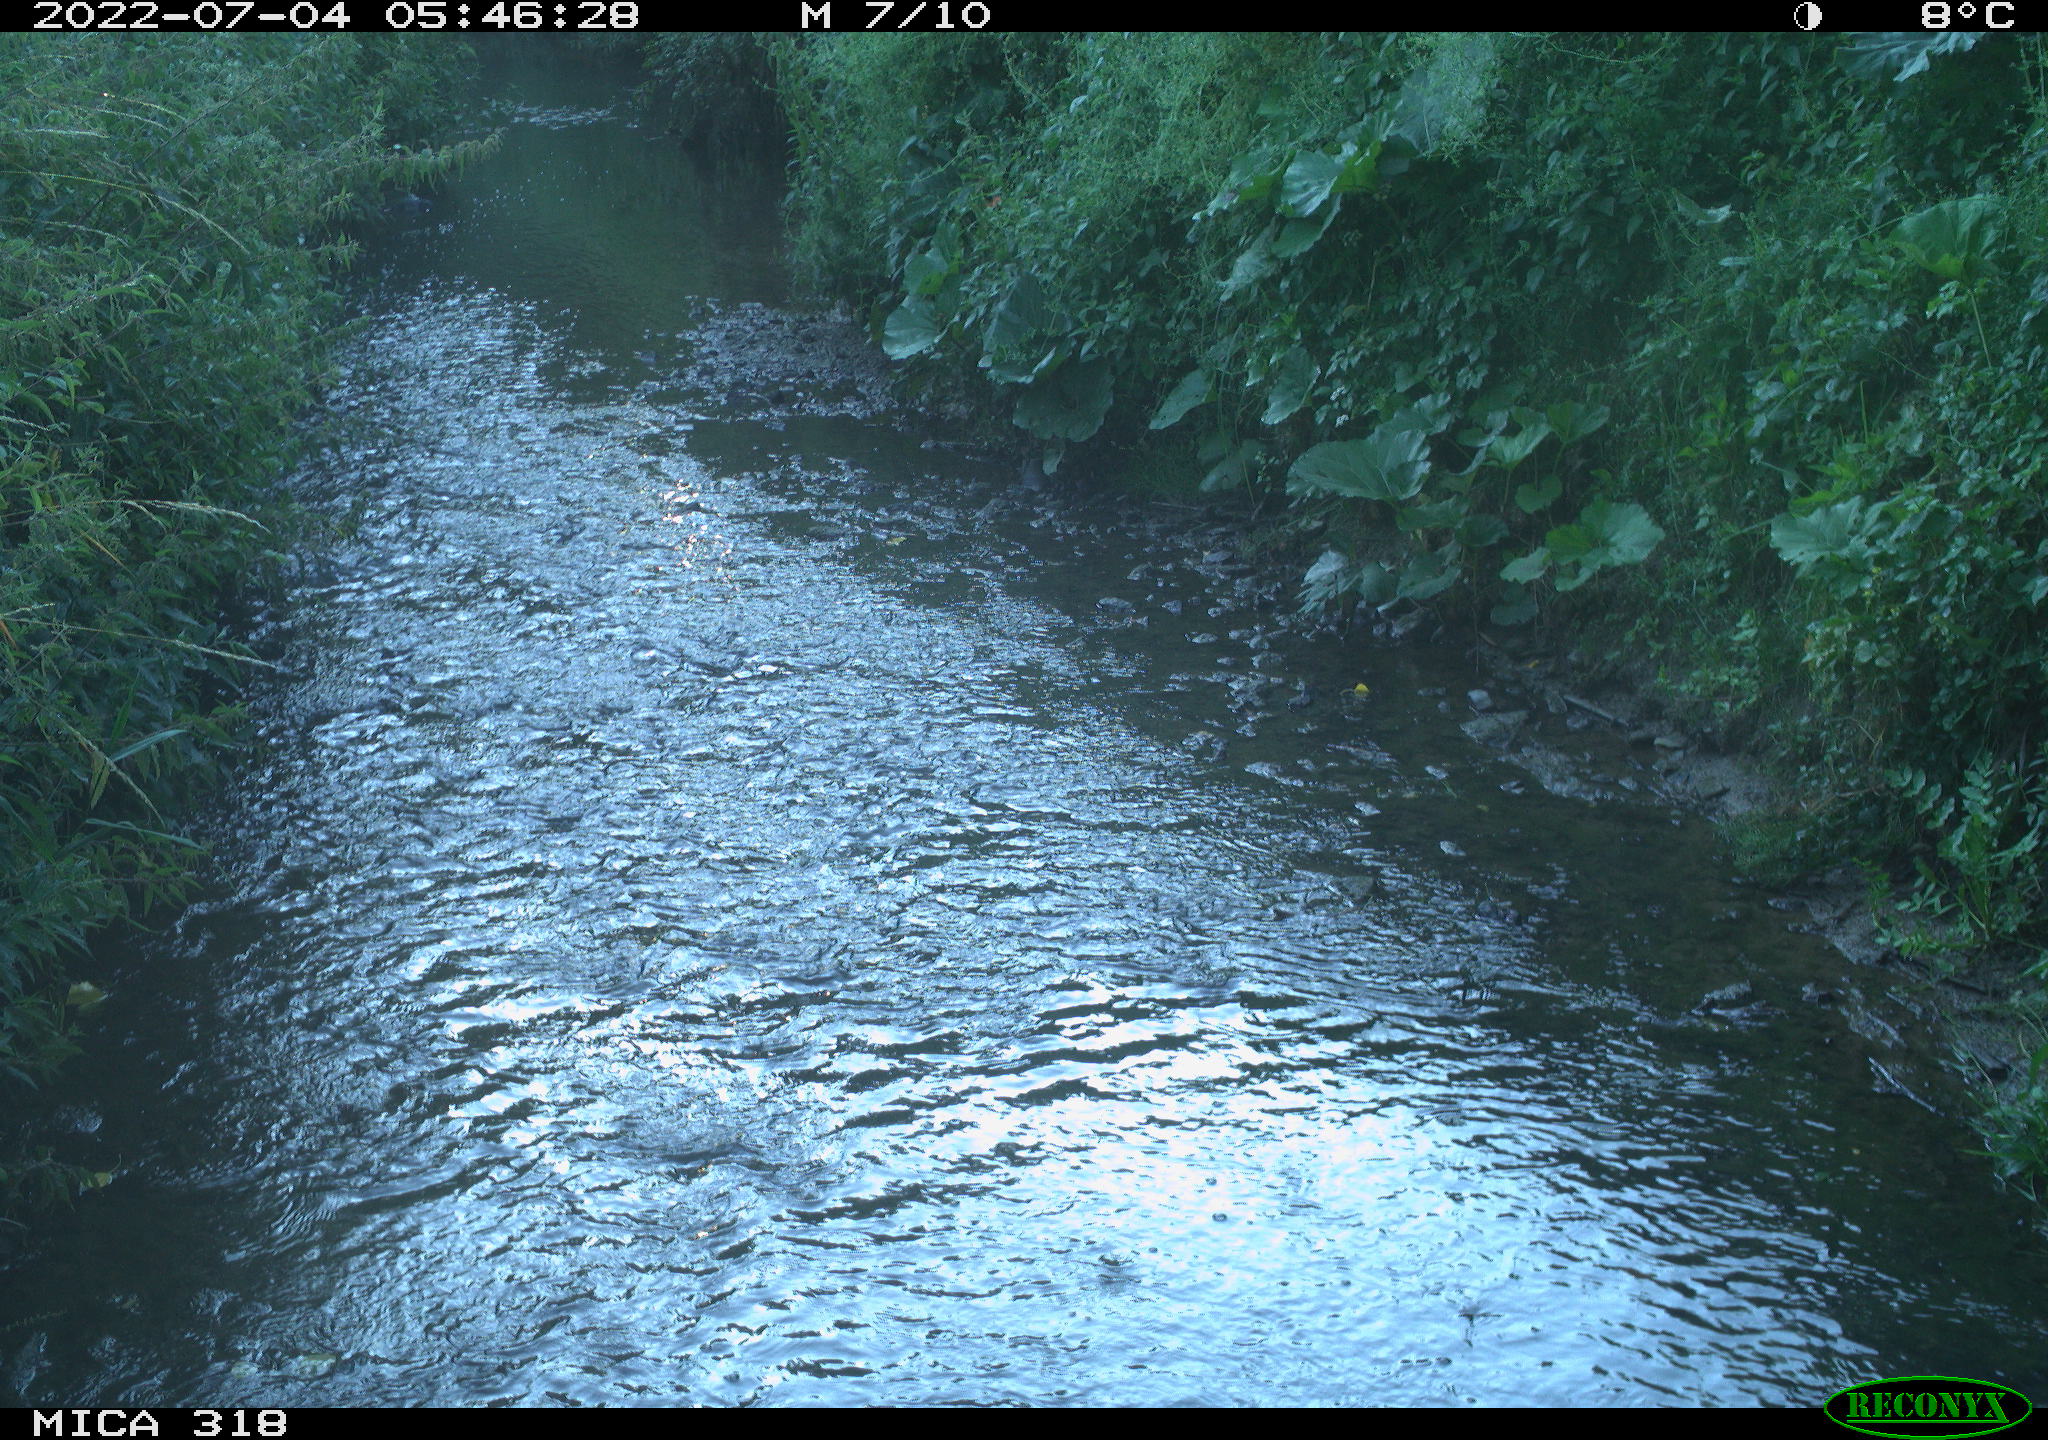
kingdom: Animalia
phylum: Chordata
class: Aves
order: Pelecaniformes
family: Ardeidae
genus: Ardea
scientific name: Ardea cinerea
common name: Grey heron
